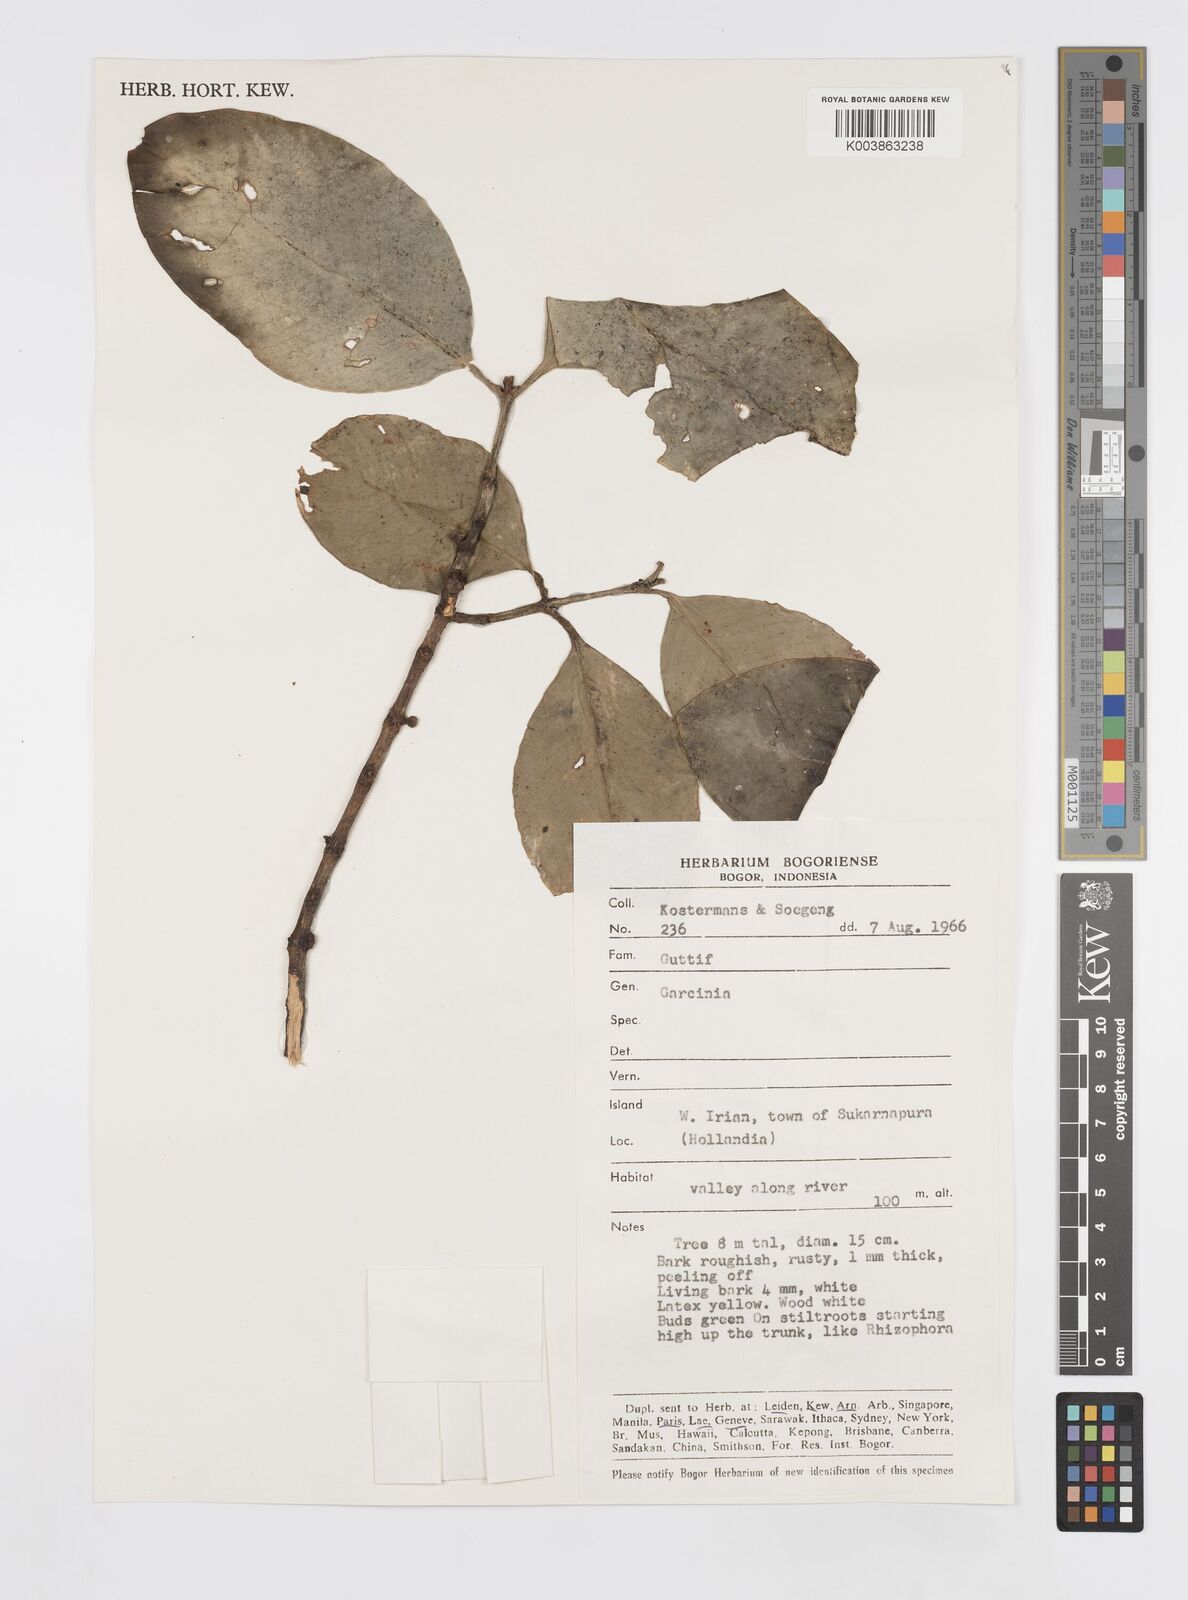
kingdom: Plantae
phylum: Tracheophyta
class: Magnoliopsida
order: Malpighiales
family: Clusiaceae
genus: Garcinia
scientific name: Garcinia
